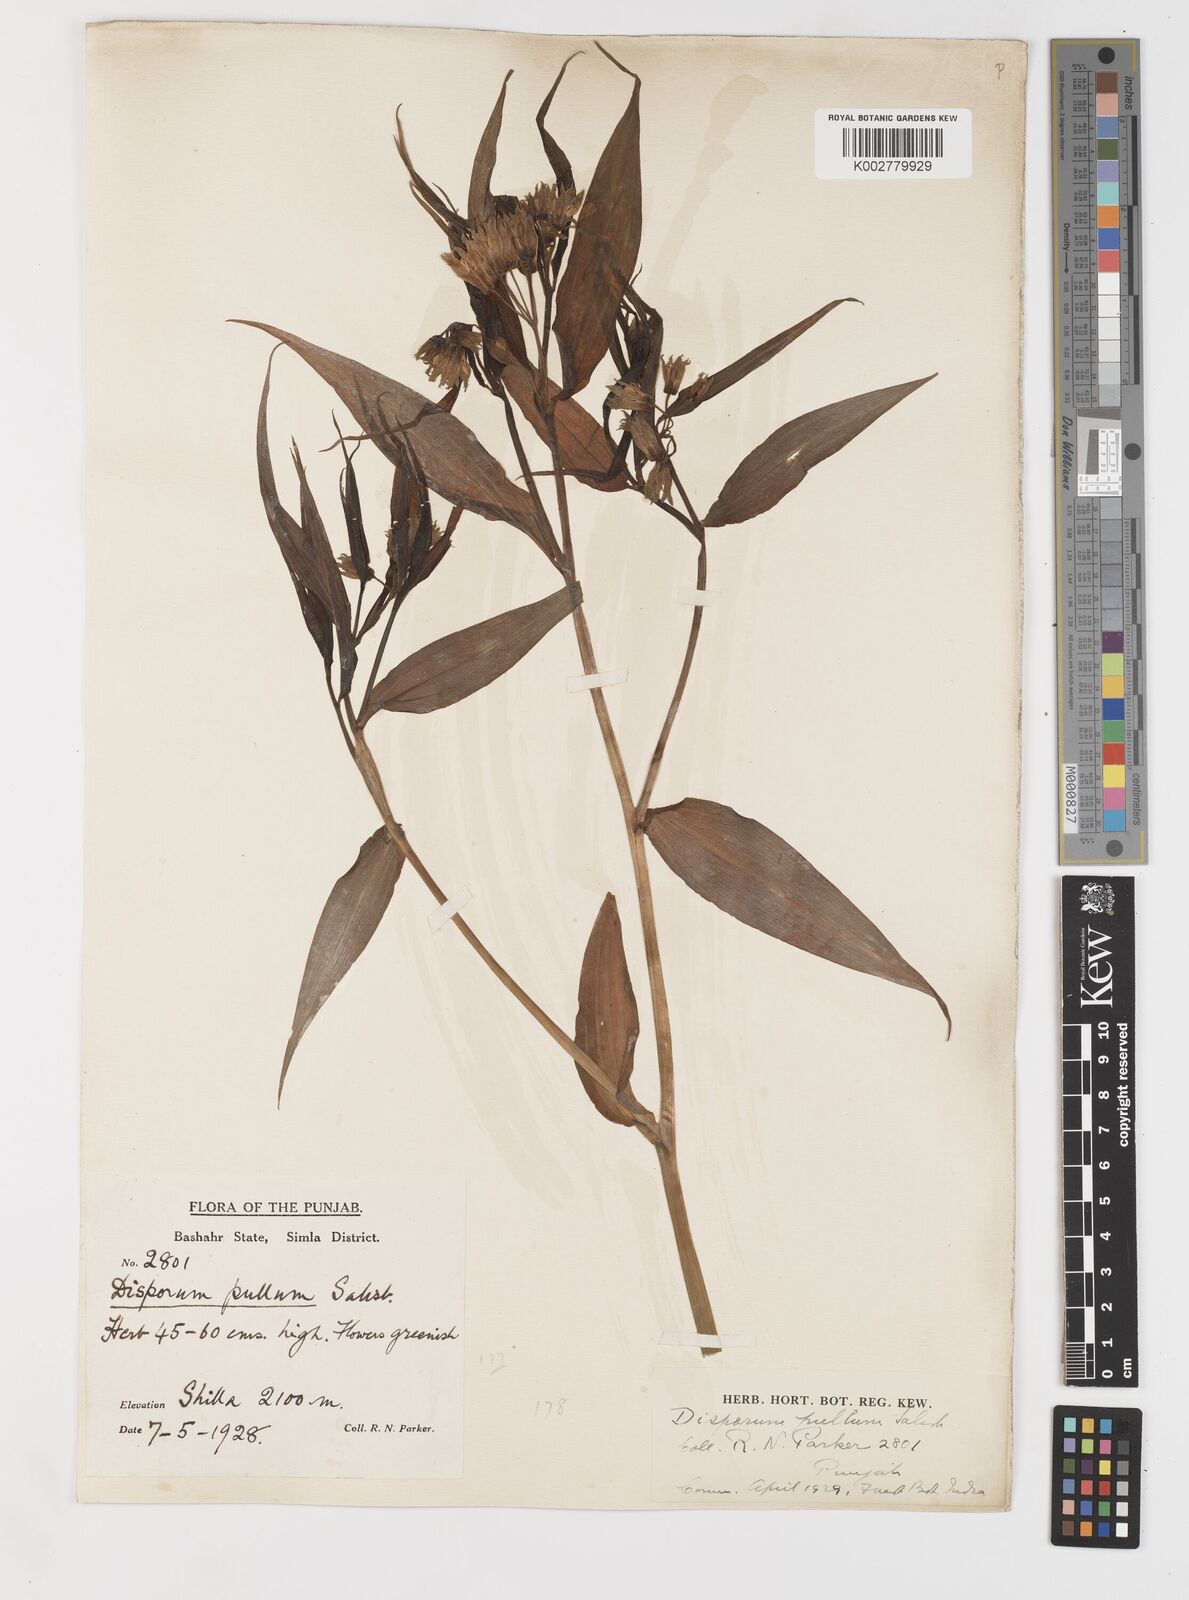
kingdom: Plantae
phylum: Tracheophyta
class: Liliopsida
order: Liliales
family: Colchicaceae
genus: Disporum
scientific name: Disporum cantoniense
